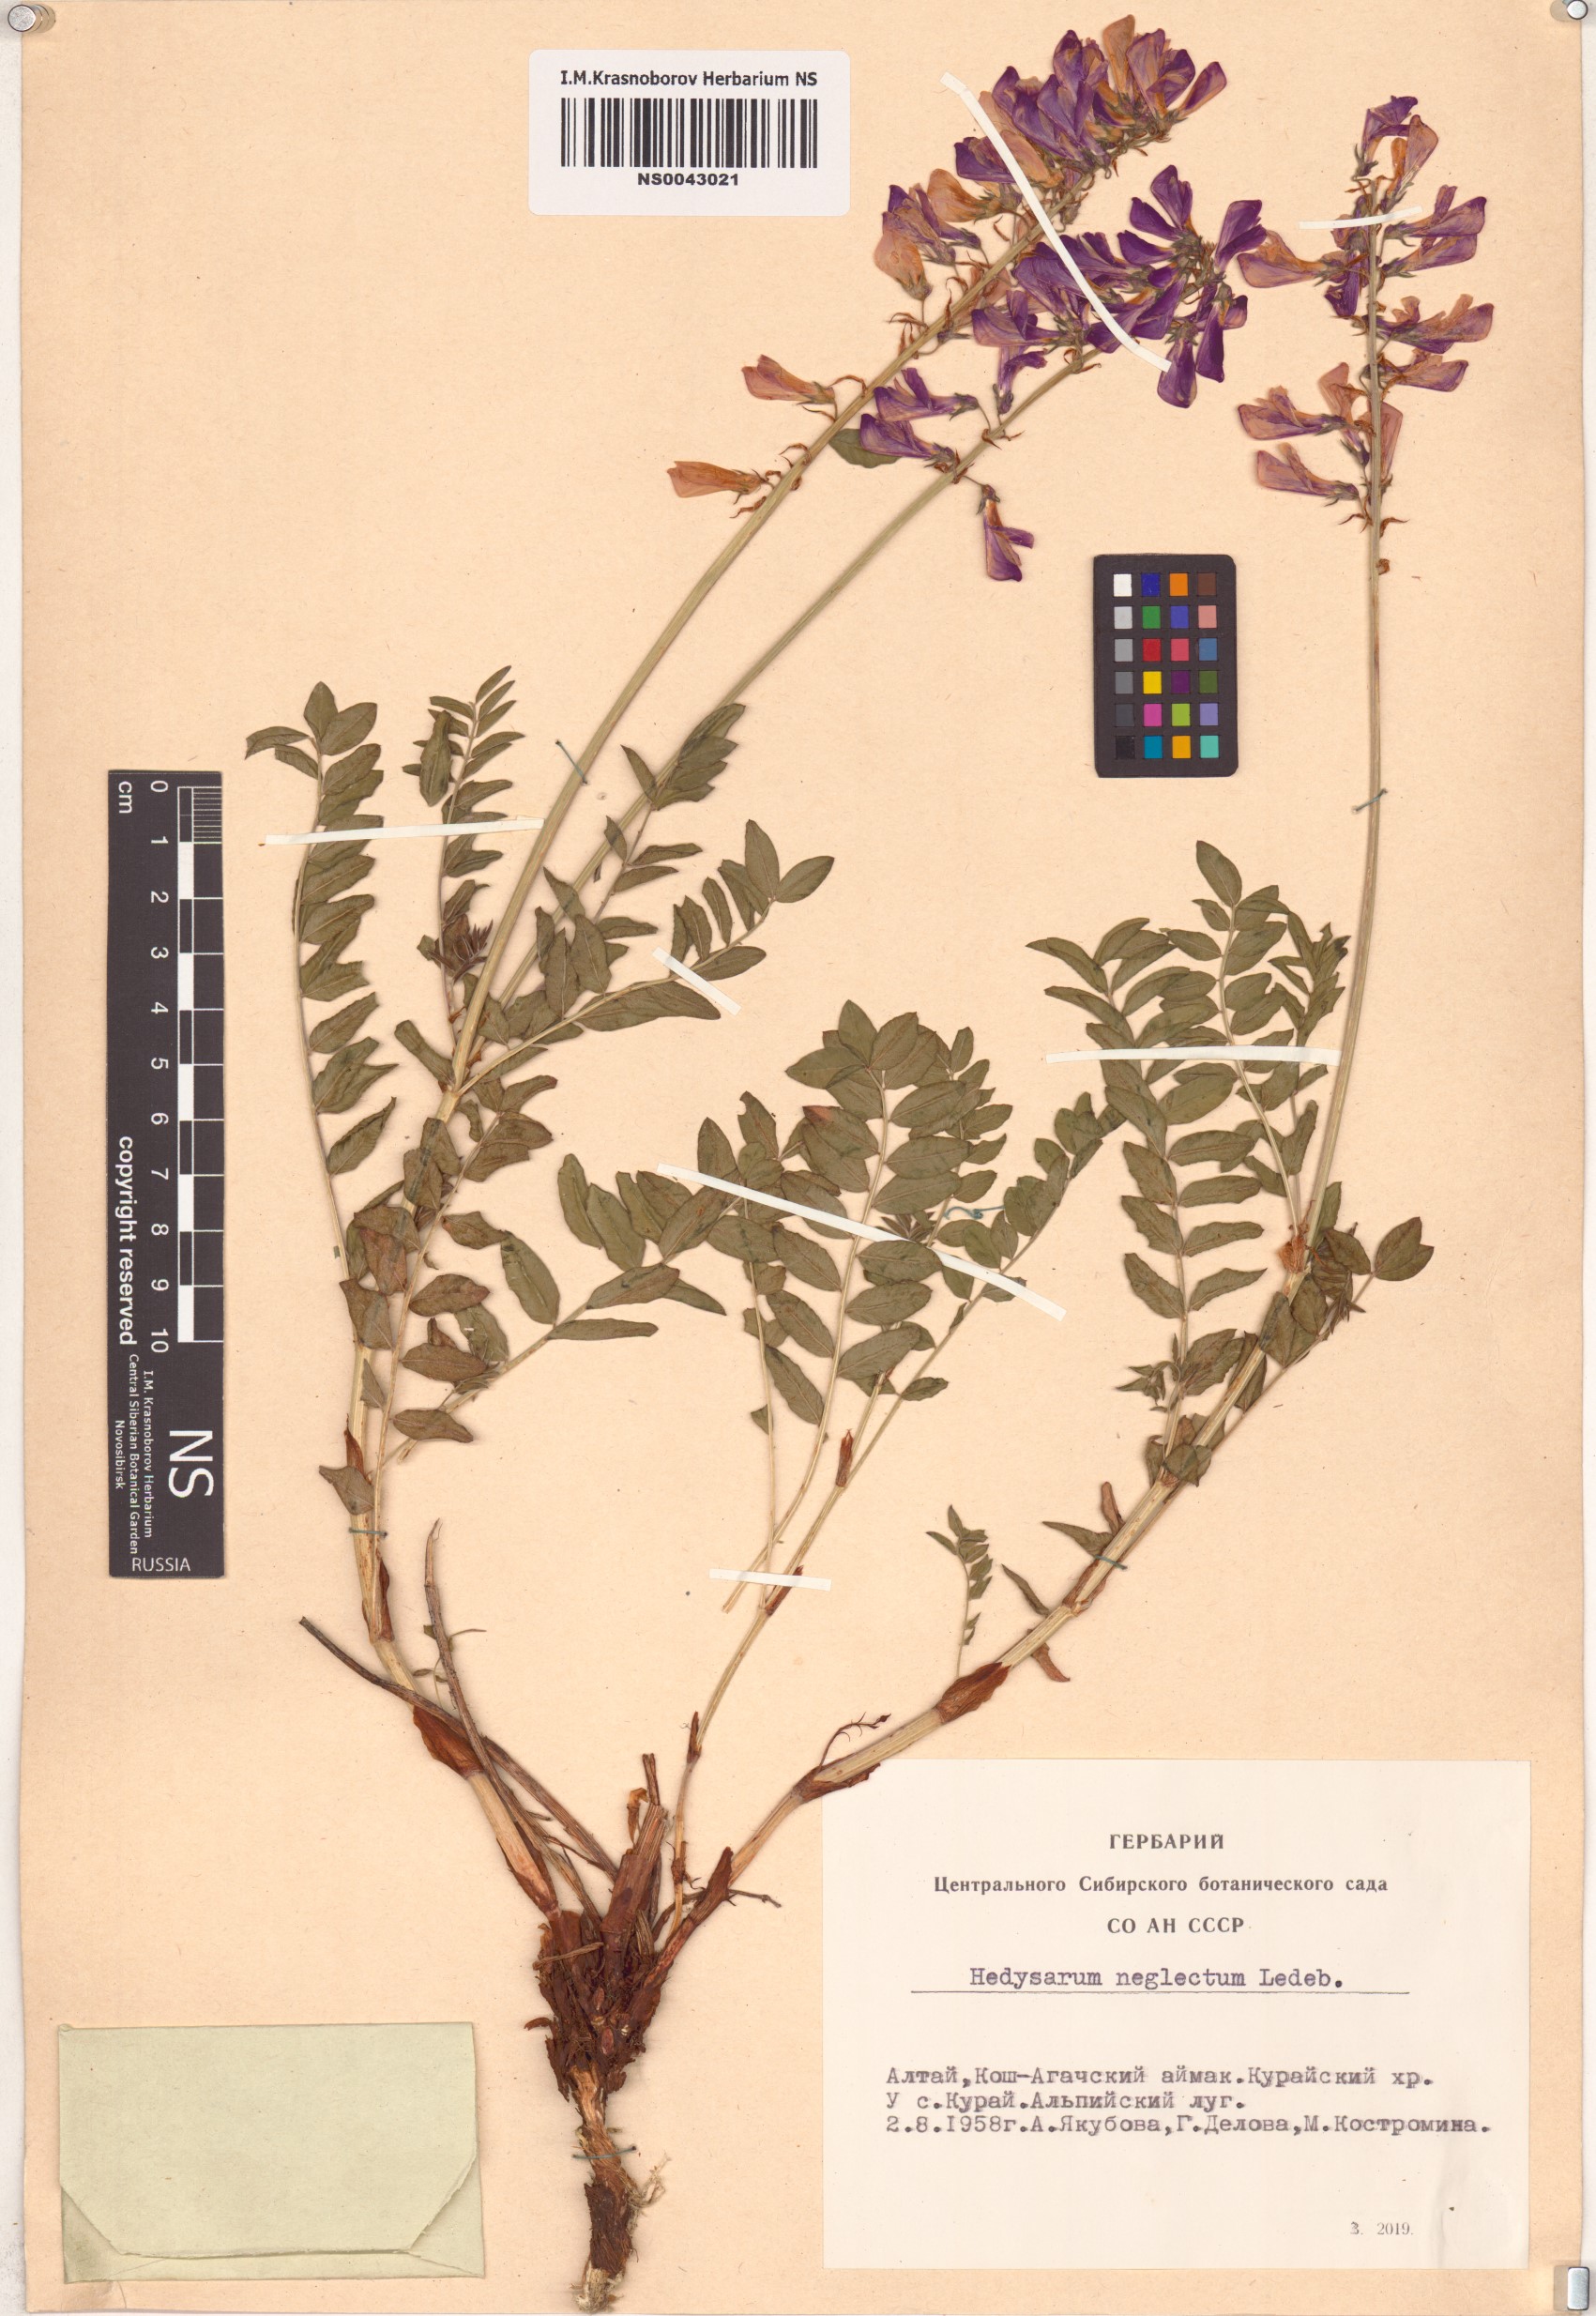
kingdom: Plantae
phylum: Tracheophyta
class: Magnoliopsida
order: Fabales
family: Fabaceae
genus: Hedysarum
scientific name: Hedysarum neglectum
